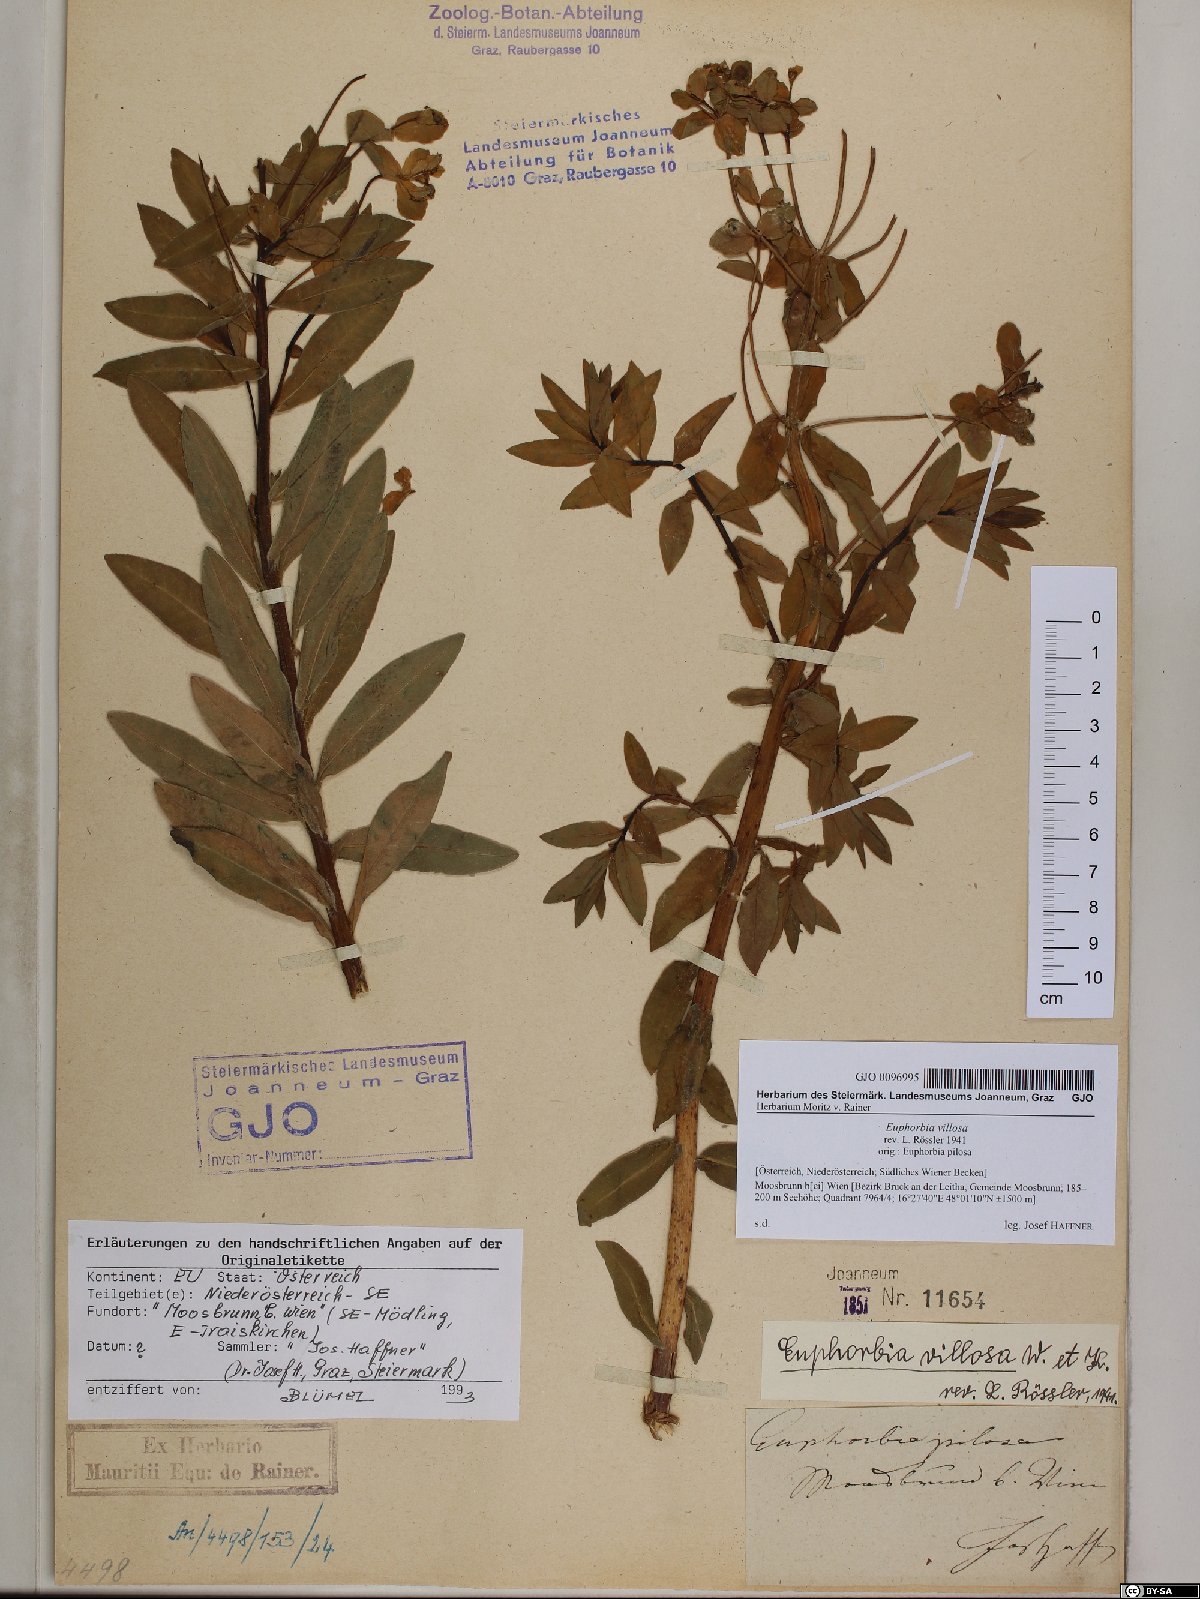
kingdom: Plantae
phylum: Tracheophyta
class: Magnoliopsida
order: Malpighiales
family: Euphorbiaceae
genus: Euphorbia
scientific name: Euphorbia illirica
